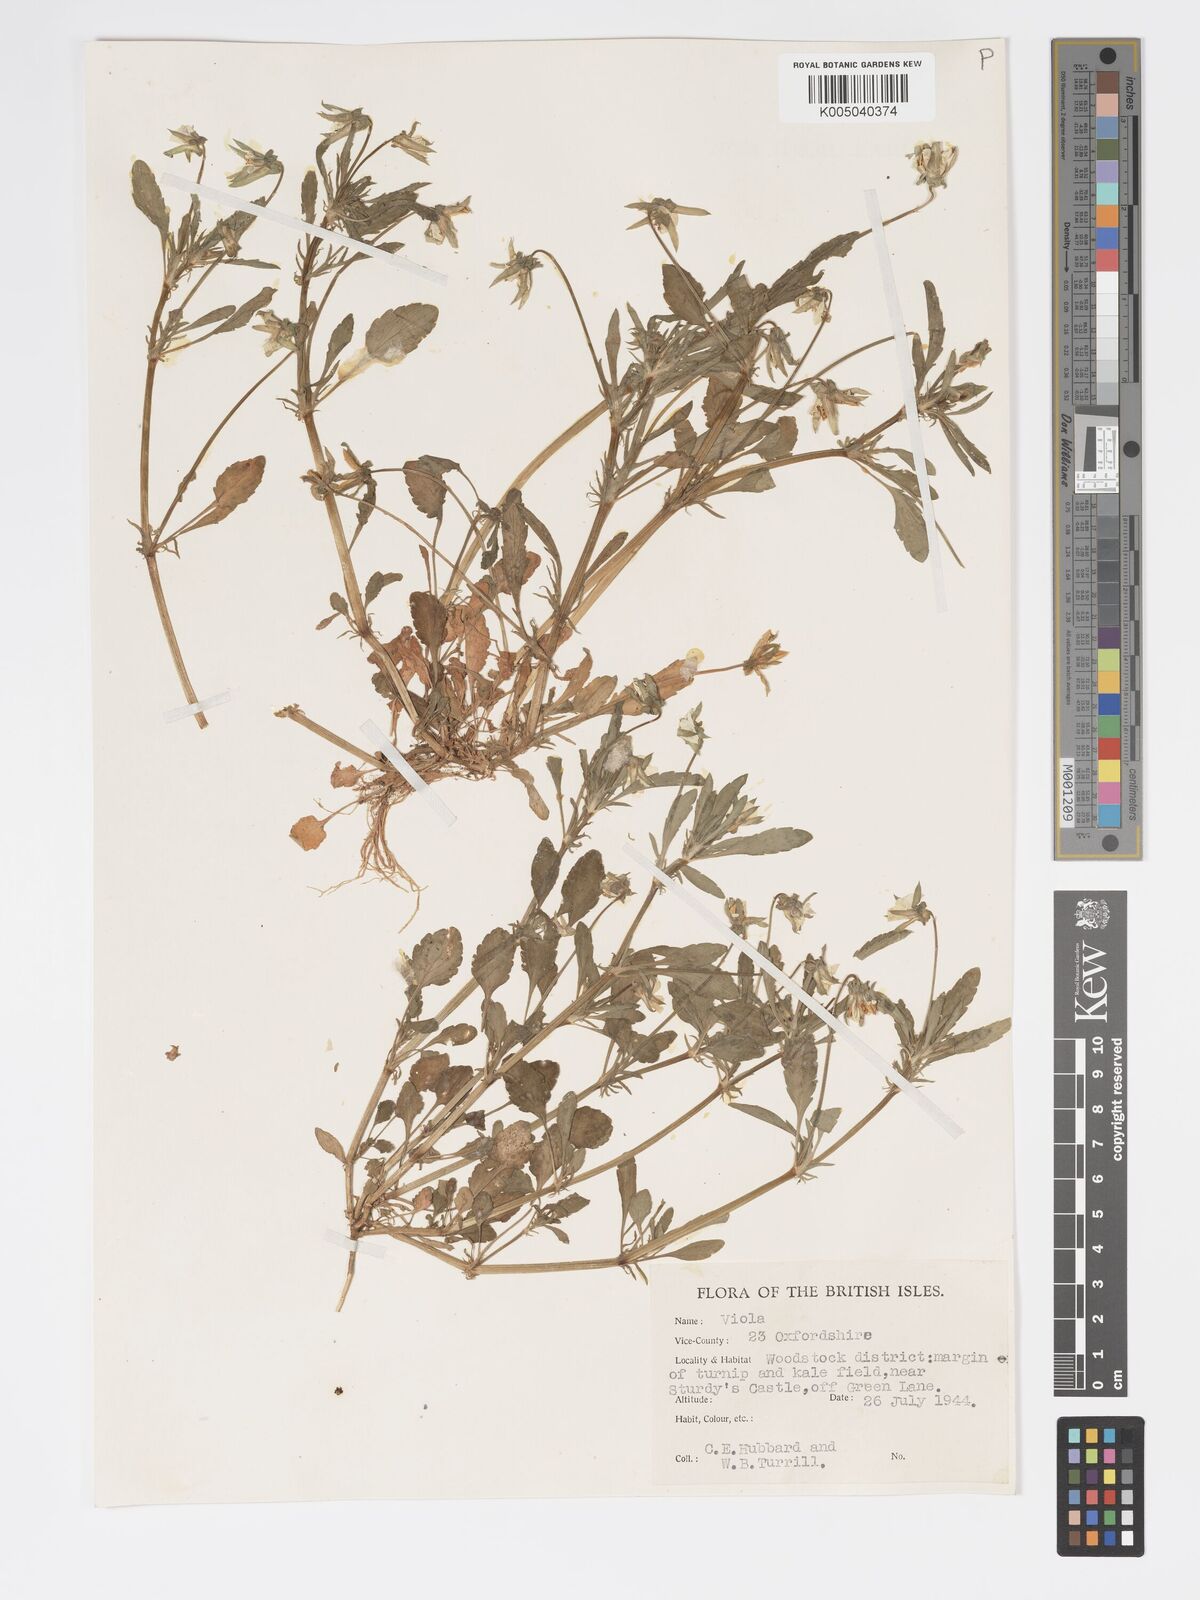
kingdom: Plantae
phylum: Tracheophyta
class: Magnoliopsida
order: Malpighiales
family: Violaceae
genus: Viola
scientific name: Viola arvensis
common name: Field pansy
